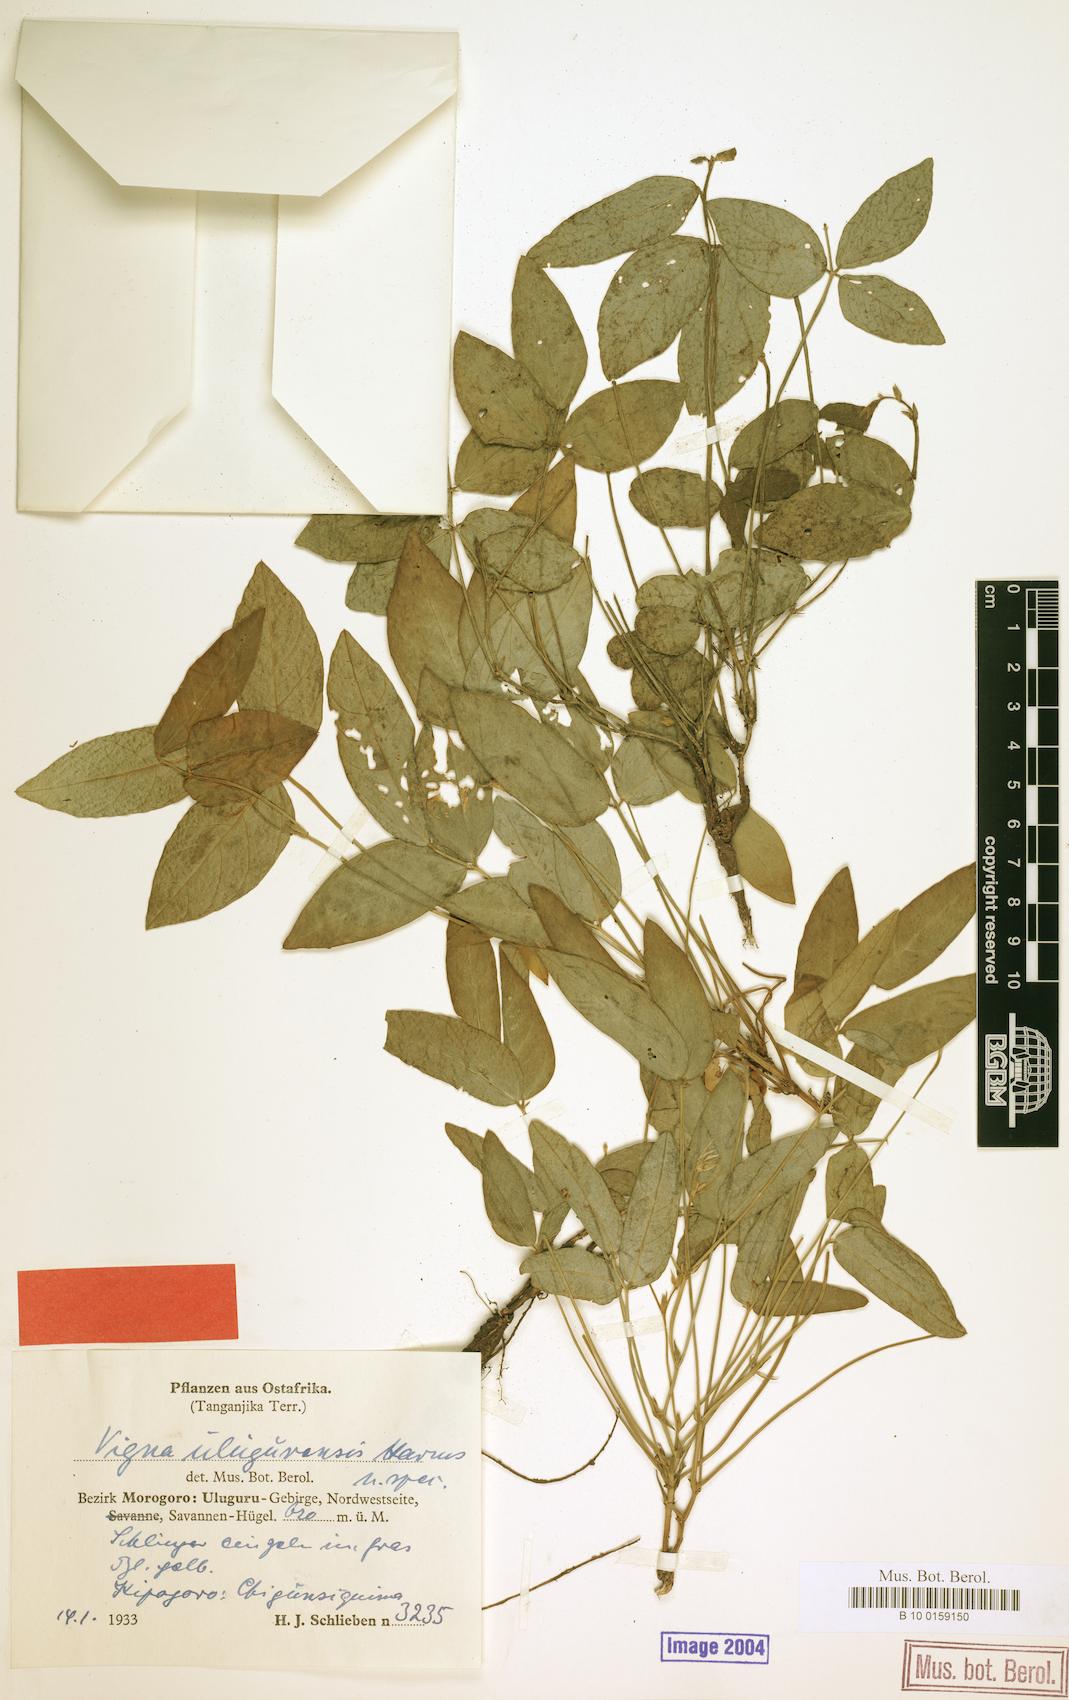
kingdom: Plantae
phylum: Tracheophyta
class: Magnoliopsida
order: Fabales
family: Fabaceae
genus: Vigna
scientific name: Vigna friesiorum
